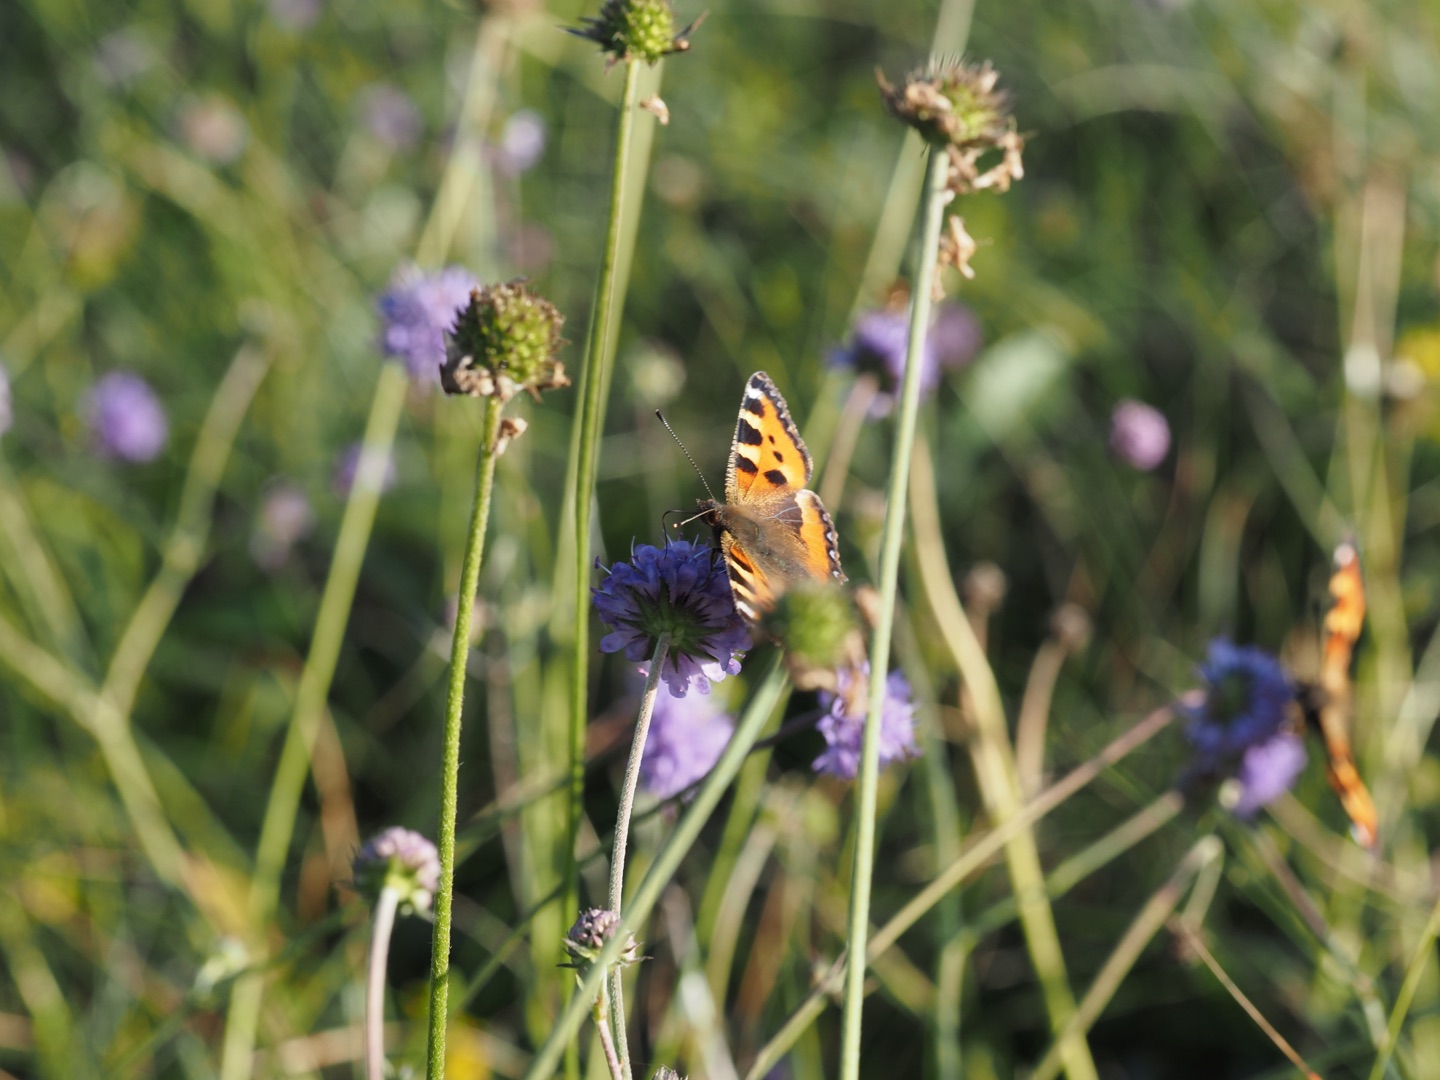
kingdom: Animalia
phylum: Arthropoda
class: Insecta
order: Lepidoptera
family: Nymphalidae
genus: Aglais
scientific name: Aglais urticae
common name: Nældens takvinge
